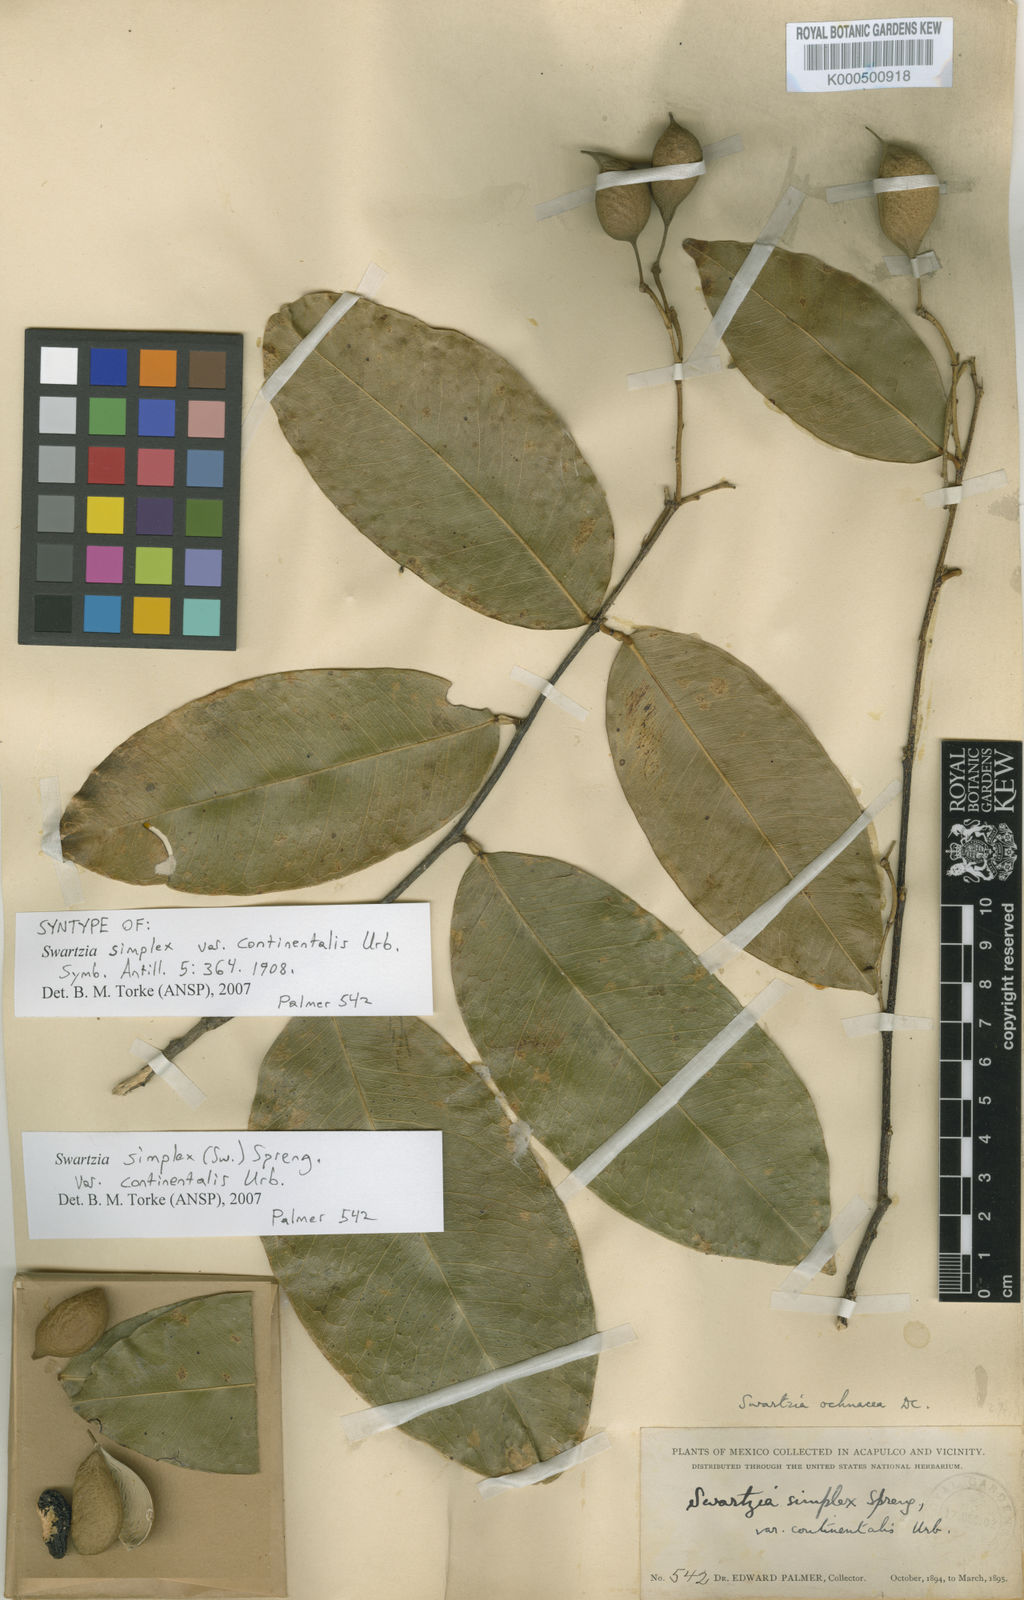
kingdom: Plantae
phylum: Tracheophyta
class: Magnoliopsida
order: Fabales
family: Fabaceae
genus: Swartzia
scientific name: Swartzia simplex
